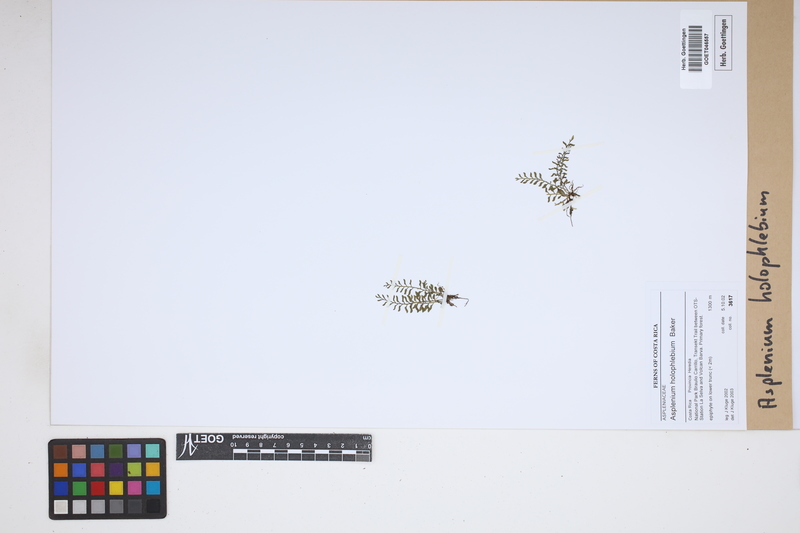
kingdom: Plantae
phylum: Tracheophyta
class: Polypodiopsida
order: Polypodiales
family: Aspleniaceae
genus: Asplenium
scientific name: Asplenium holophlebium
